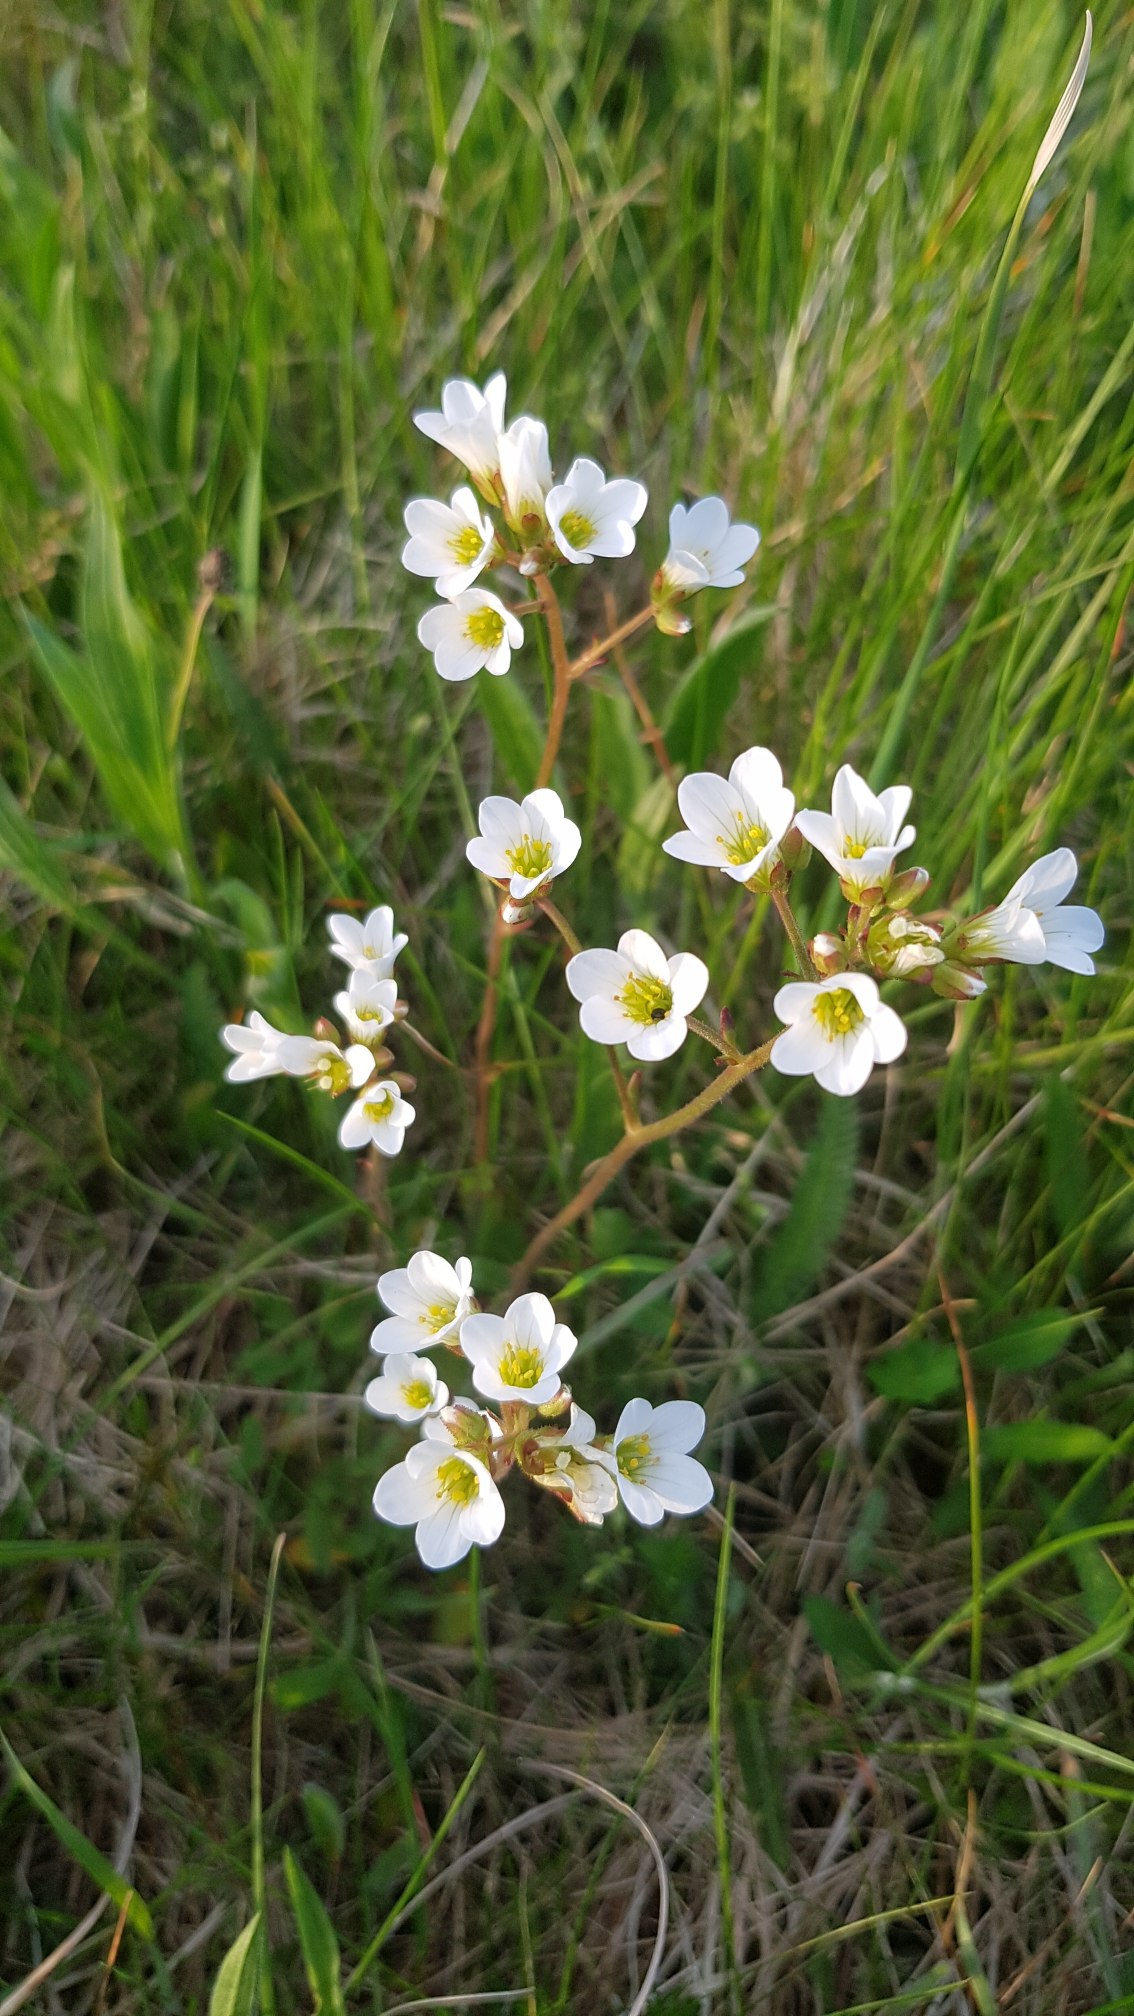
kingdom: Plantae
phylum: Tracheophyta
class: Magnoliopsida
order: Saxifragales
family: Saxifragaceae
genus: Saxifraga
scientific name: Saxifraga granulata
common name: Kornet stenbræk
